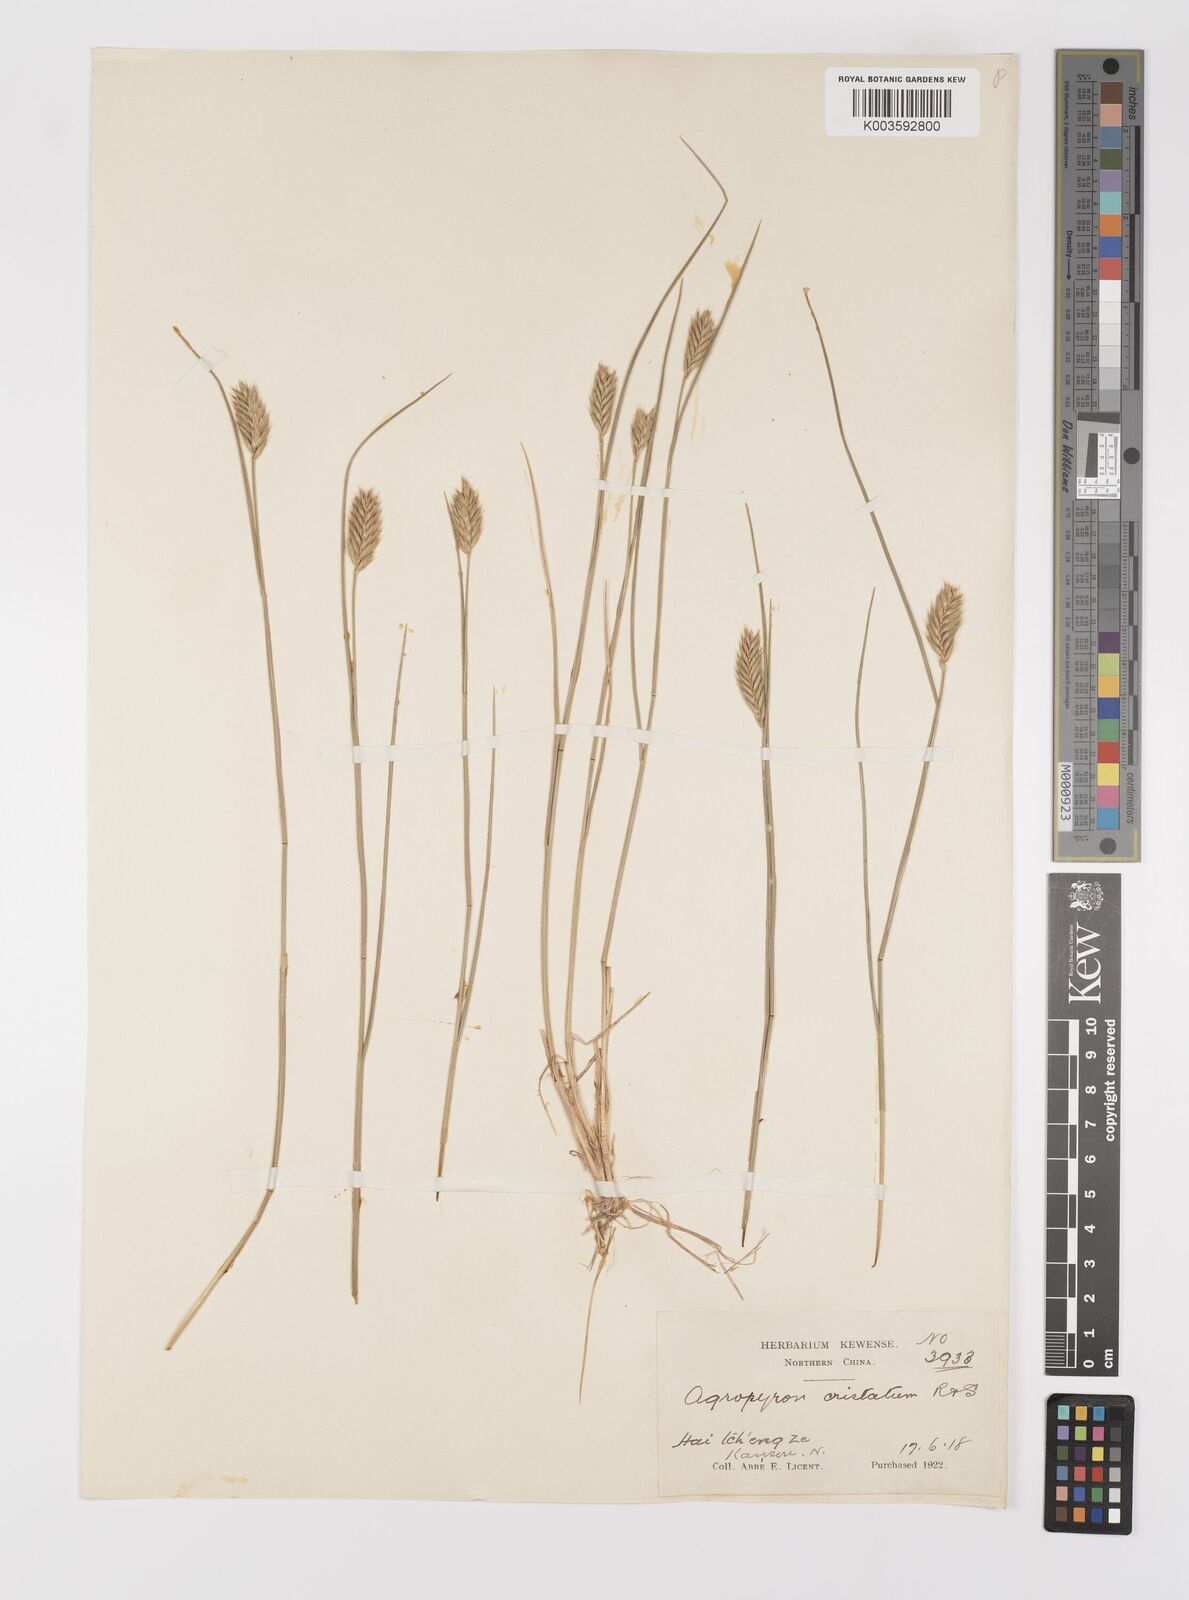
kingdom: Plantae
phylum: Tracheophyta
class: Liliopsida
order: Poales
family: Poaceae
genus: Agropyron
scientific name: Agropyron cristatum
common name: Crested wheatgrass
